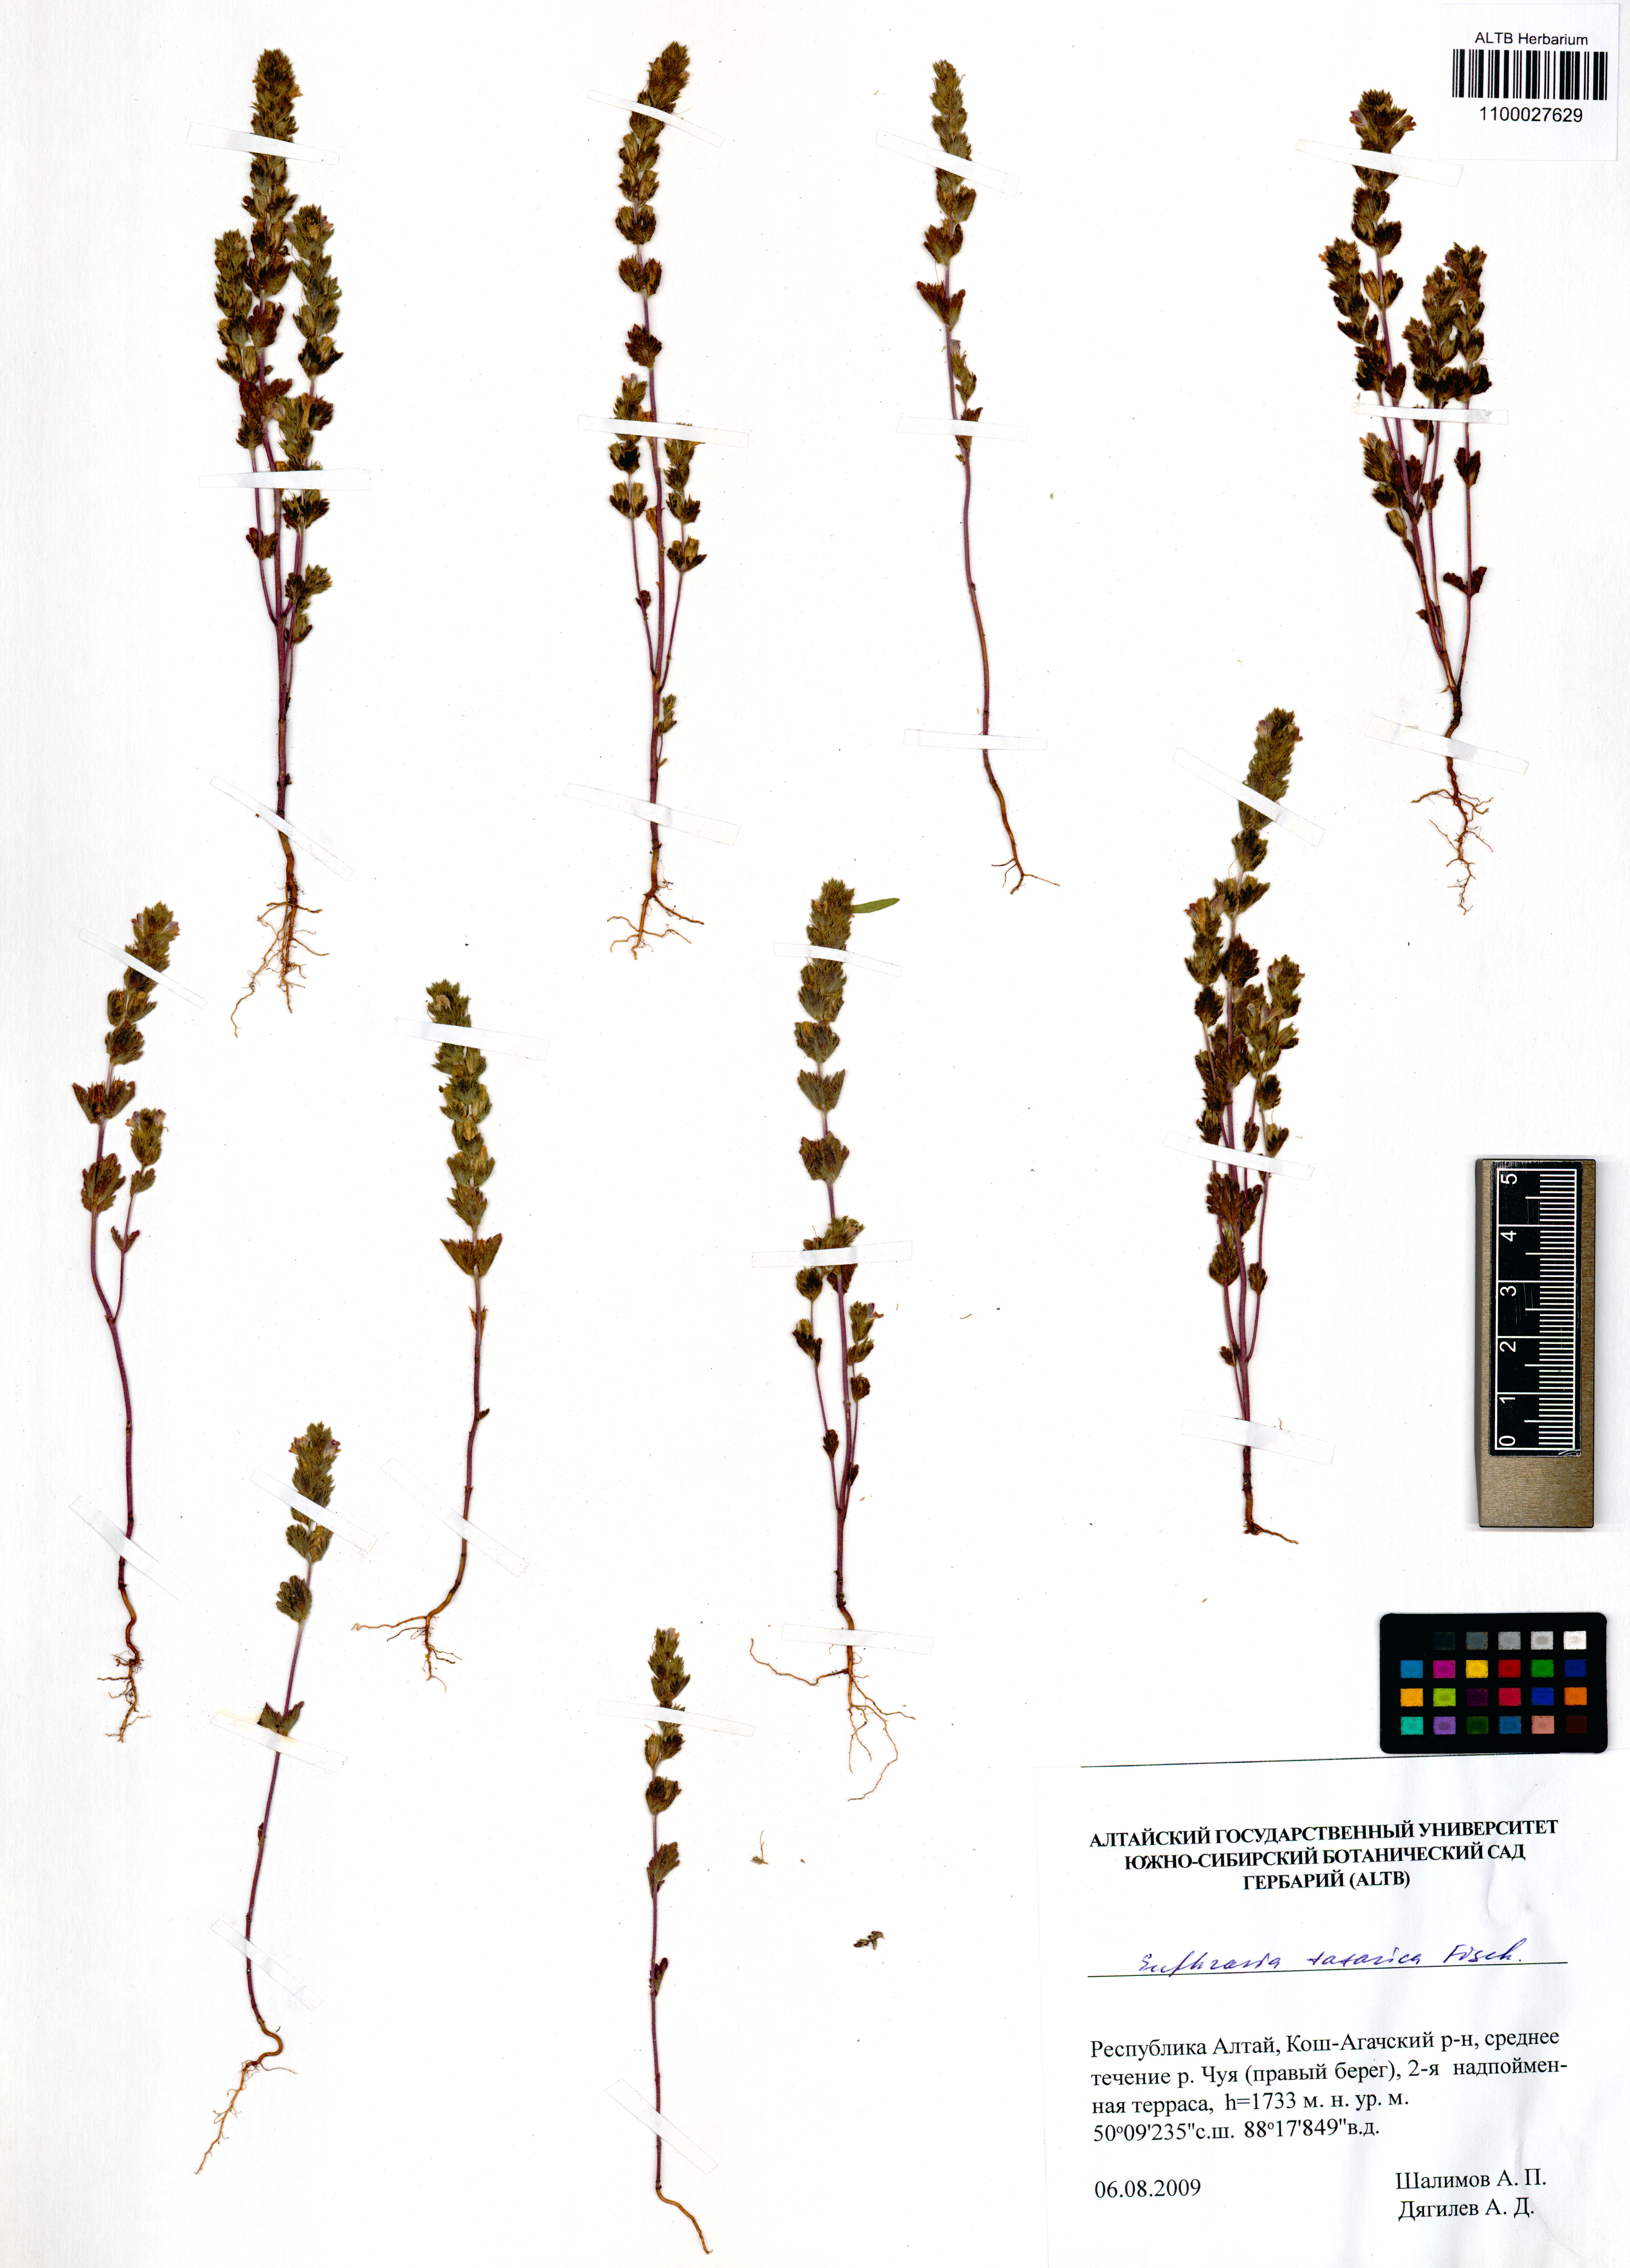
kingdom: Plantae
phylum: Tracheophyta
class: Magnoliopsida
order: Lamiales
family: Orobanchaceae
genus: Euphrasia
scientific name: Euphrasia pectinata
